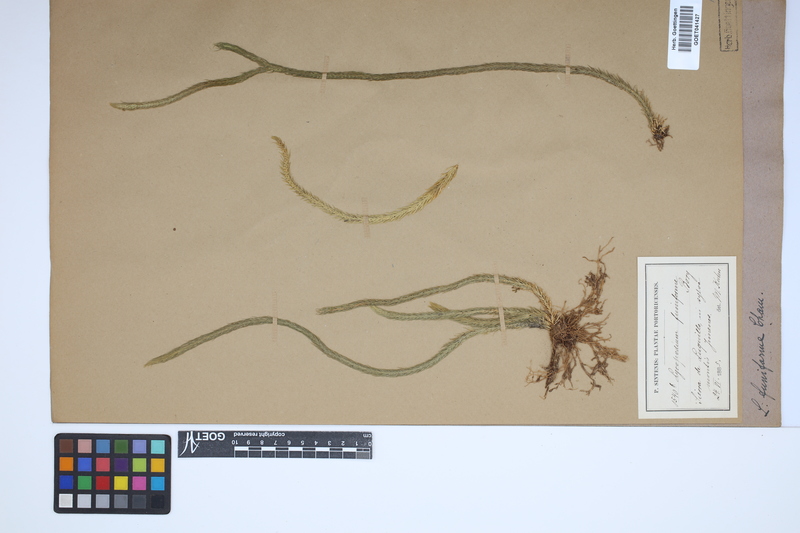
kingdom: Plantae
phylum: Tracheophyta
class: Lycopodiopsida
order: Lycopodiales
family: Lycopodiaceae
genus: Phlegmariurus
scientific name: Phlegmariurus funiformis
